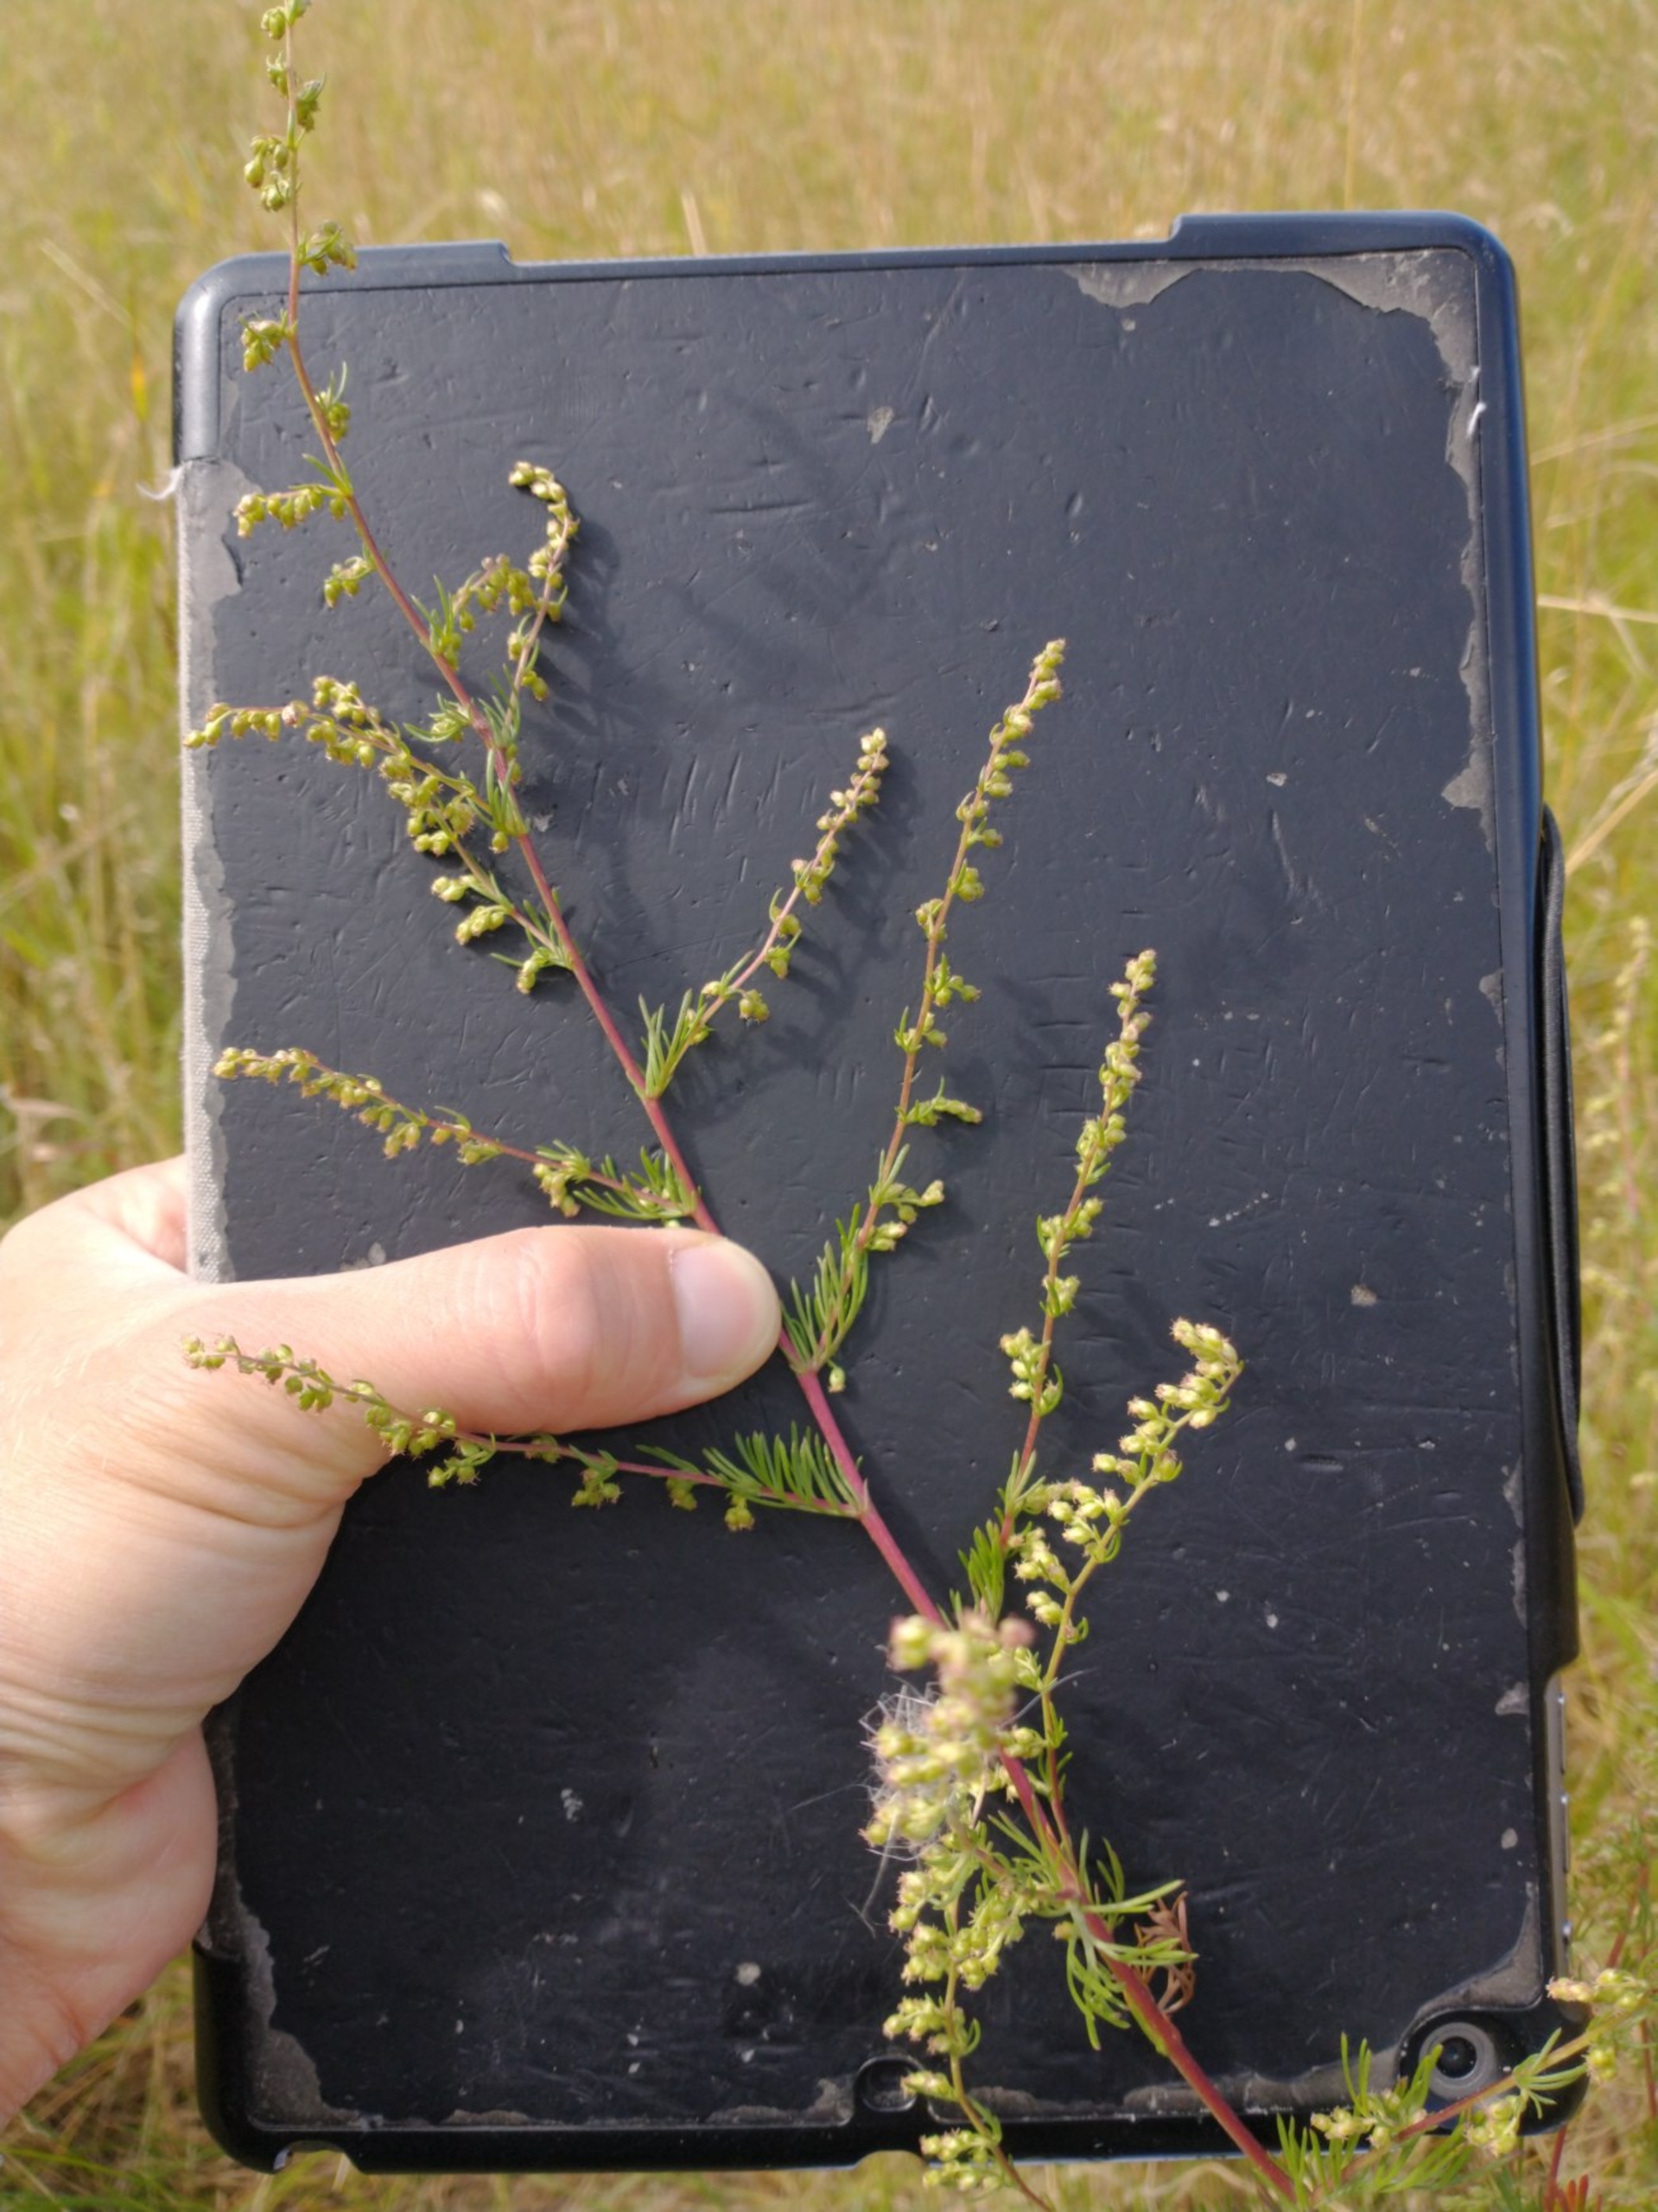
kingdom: Plantae
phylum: Tracheophyta
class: Magnoliopsida
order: Asterales
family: Asteraceae
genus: Artemisia
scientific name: Artemisia campestris
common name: Mark-bynke
